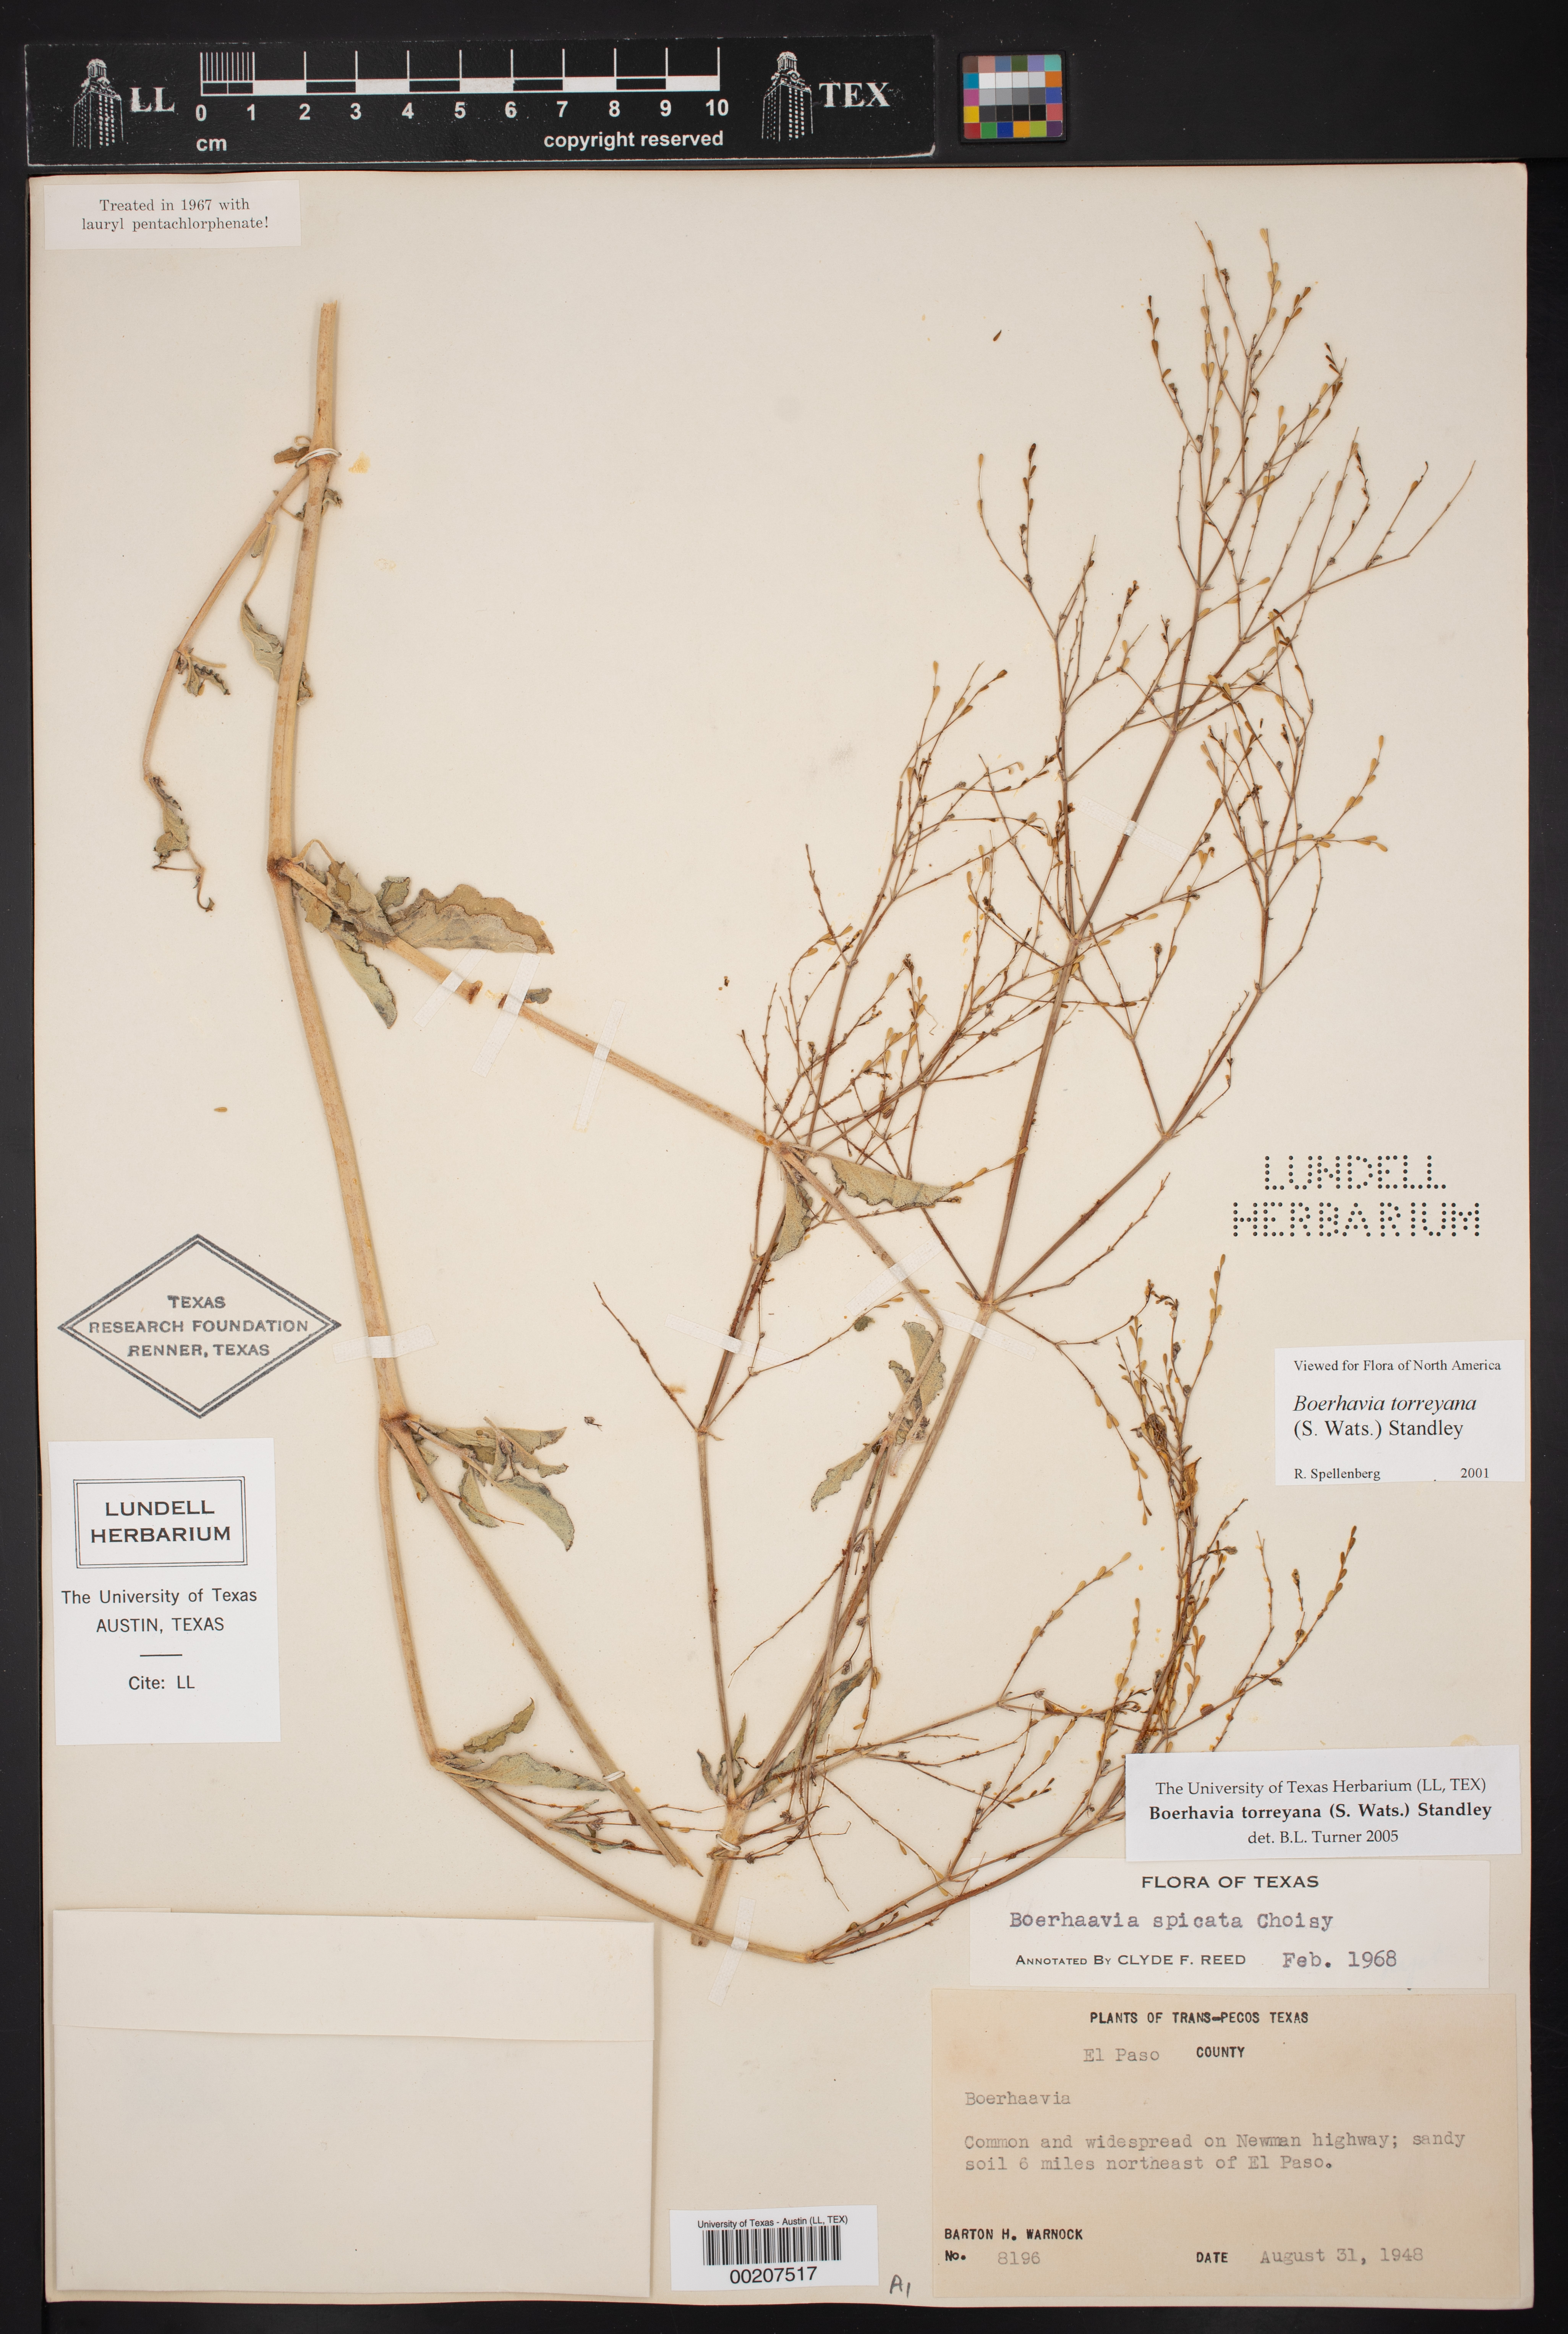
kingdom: Plantae
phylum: Tracheophyta
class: Magnoliopsida
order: Caryophyllales
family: Nyctaginaceae
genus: Boerhavia
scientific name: Boerhavia torreyana
